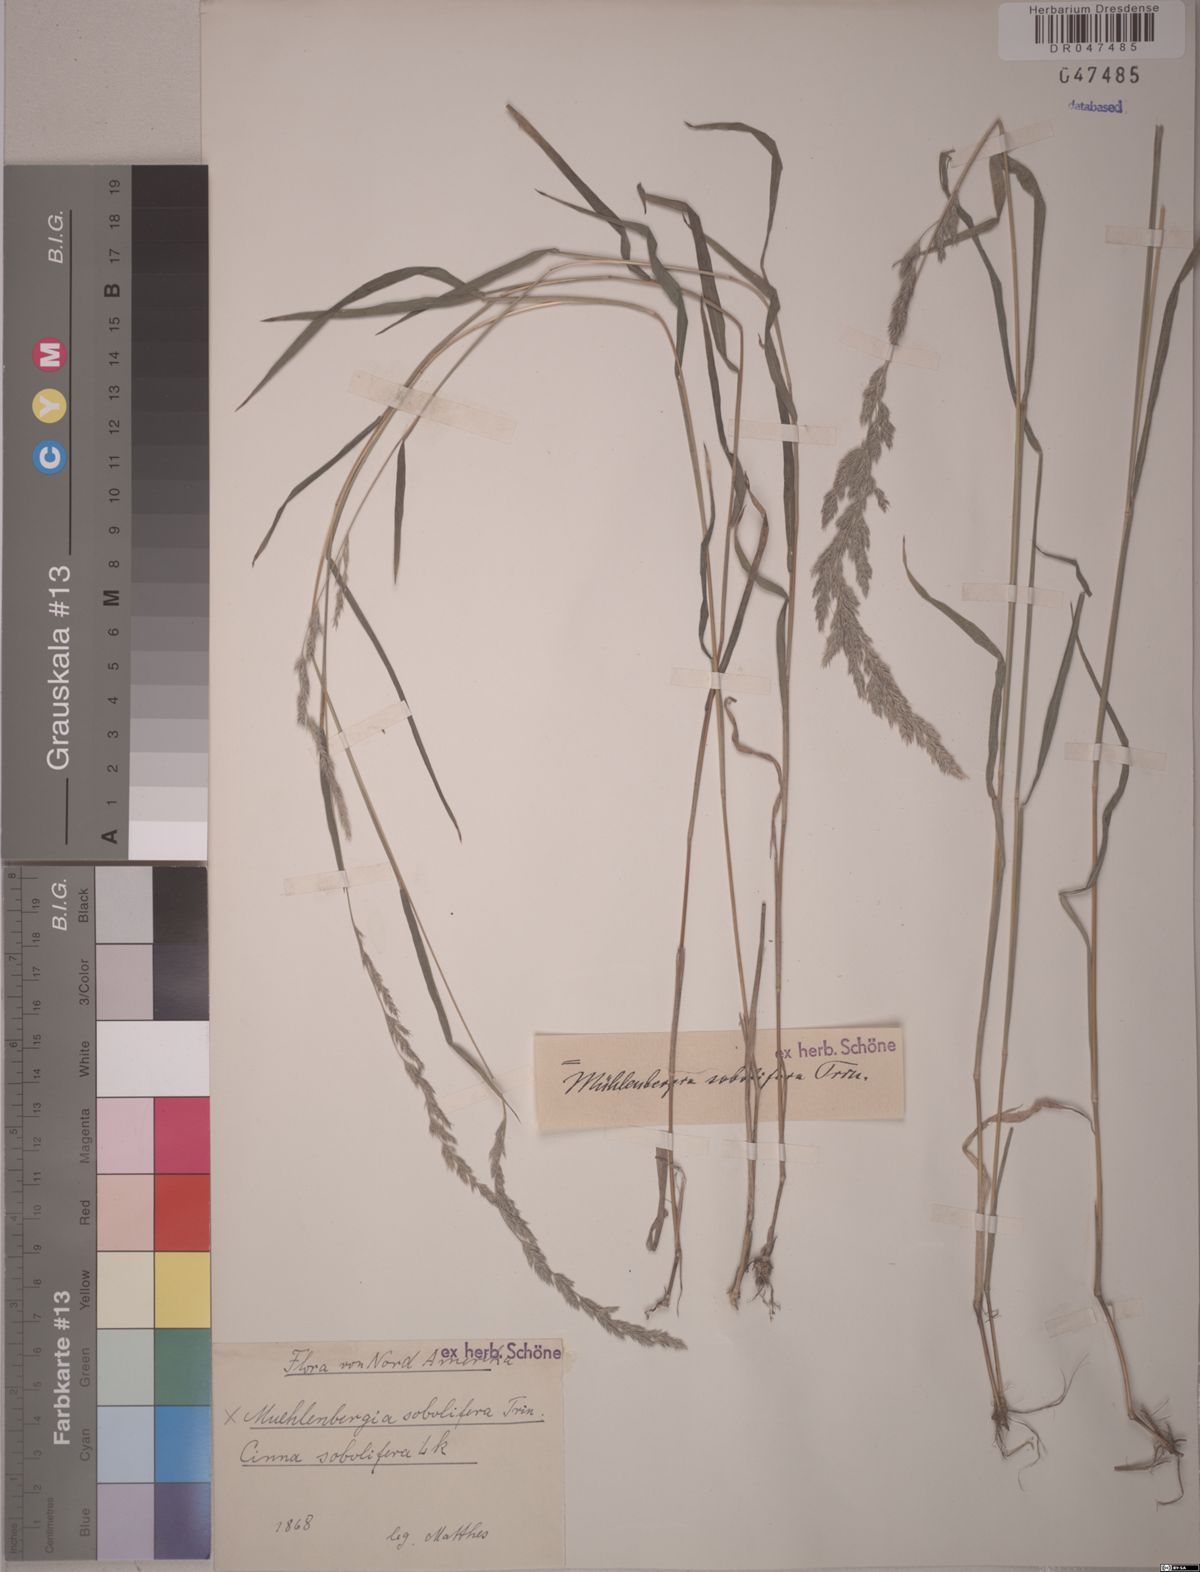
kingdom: Plantae
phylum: Tracheophyta
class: Liliopsida
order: Poales
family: Poaceae
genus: Muhlenbergia
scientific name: Muhlenbergia sobolifera
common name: Creeping muhly
